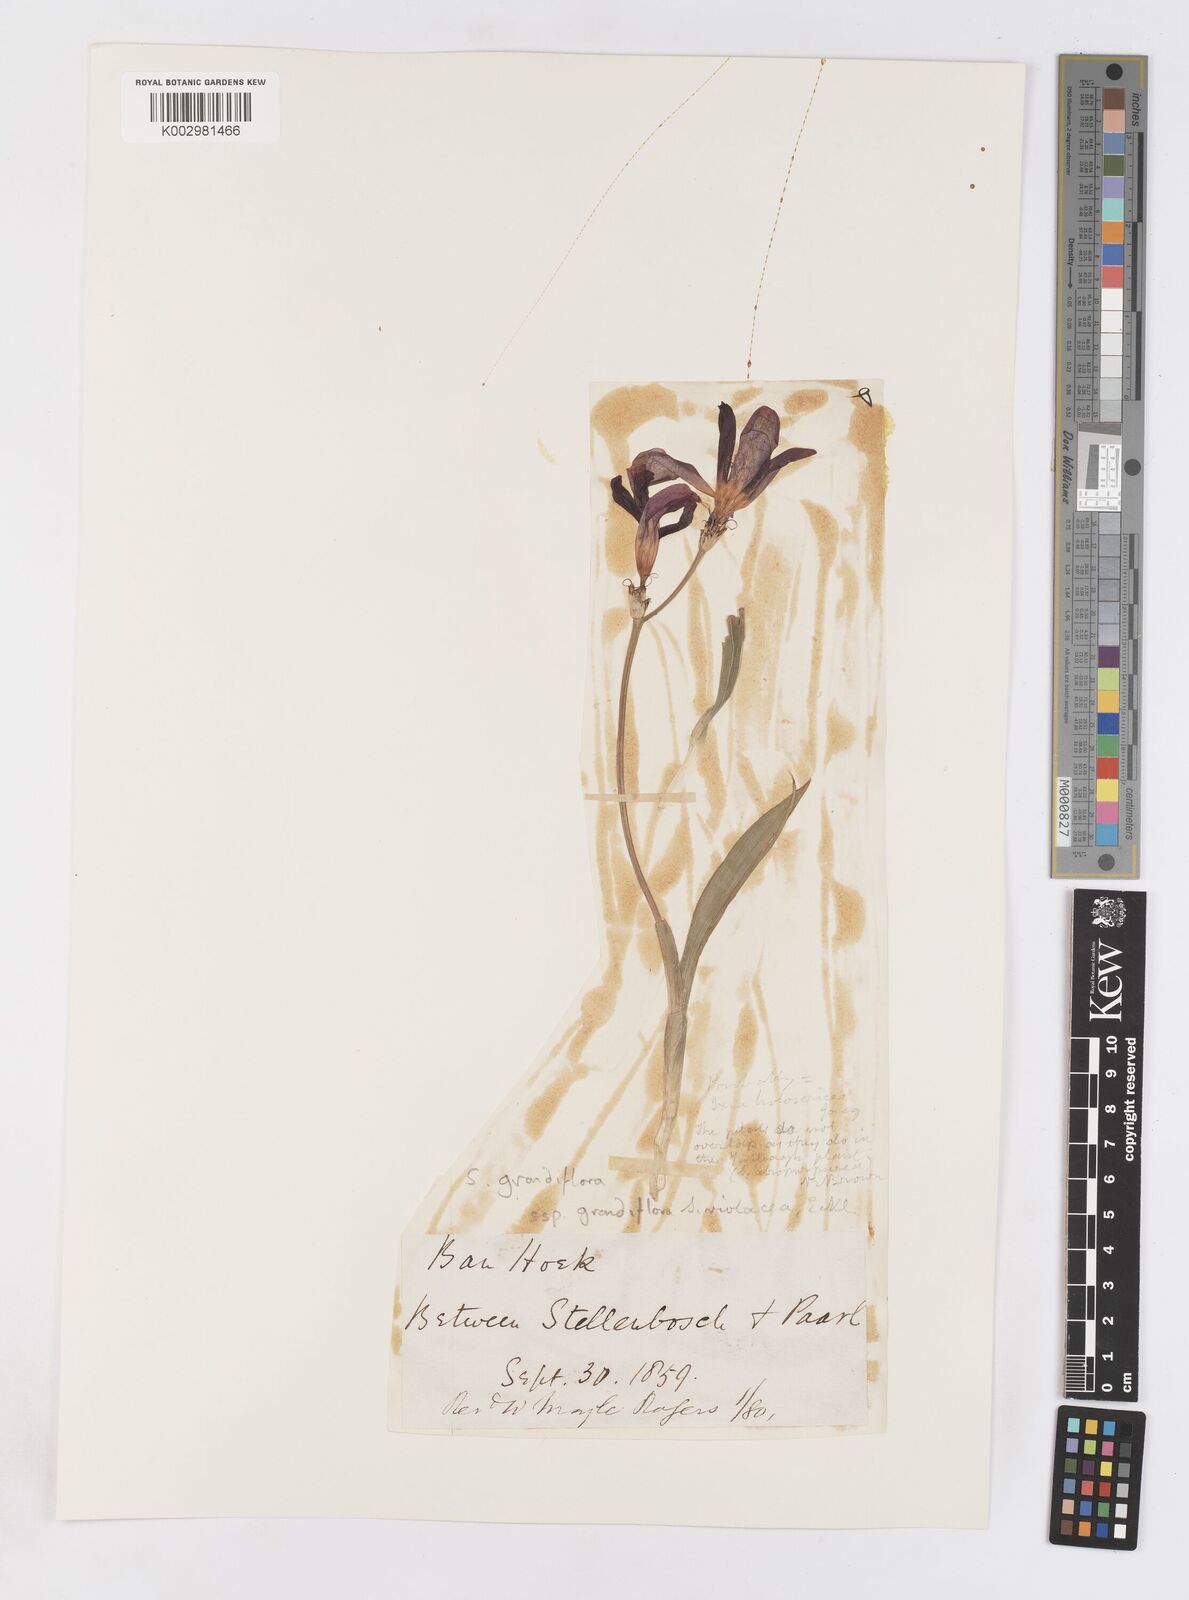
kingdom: Plantae
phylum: Tracheophyta
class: Liliopsida
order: Asparagales
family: Iridaceae
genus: Sparaxis
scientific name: Sparaxis grandiflora
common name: Plain harlequin-flower
